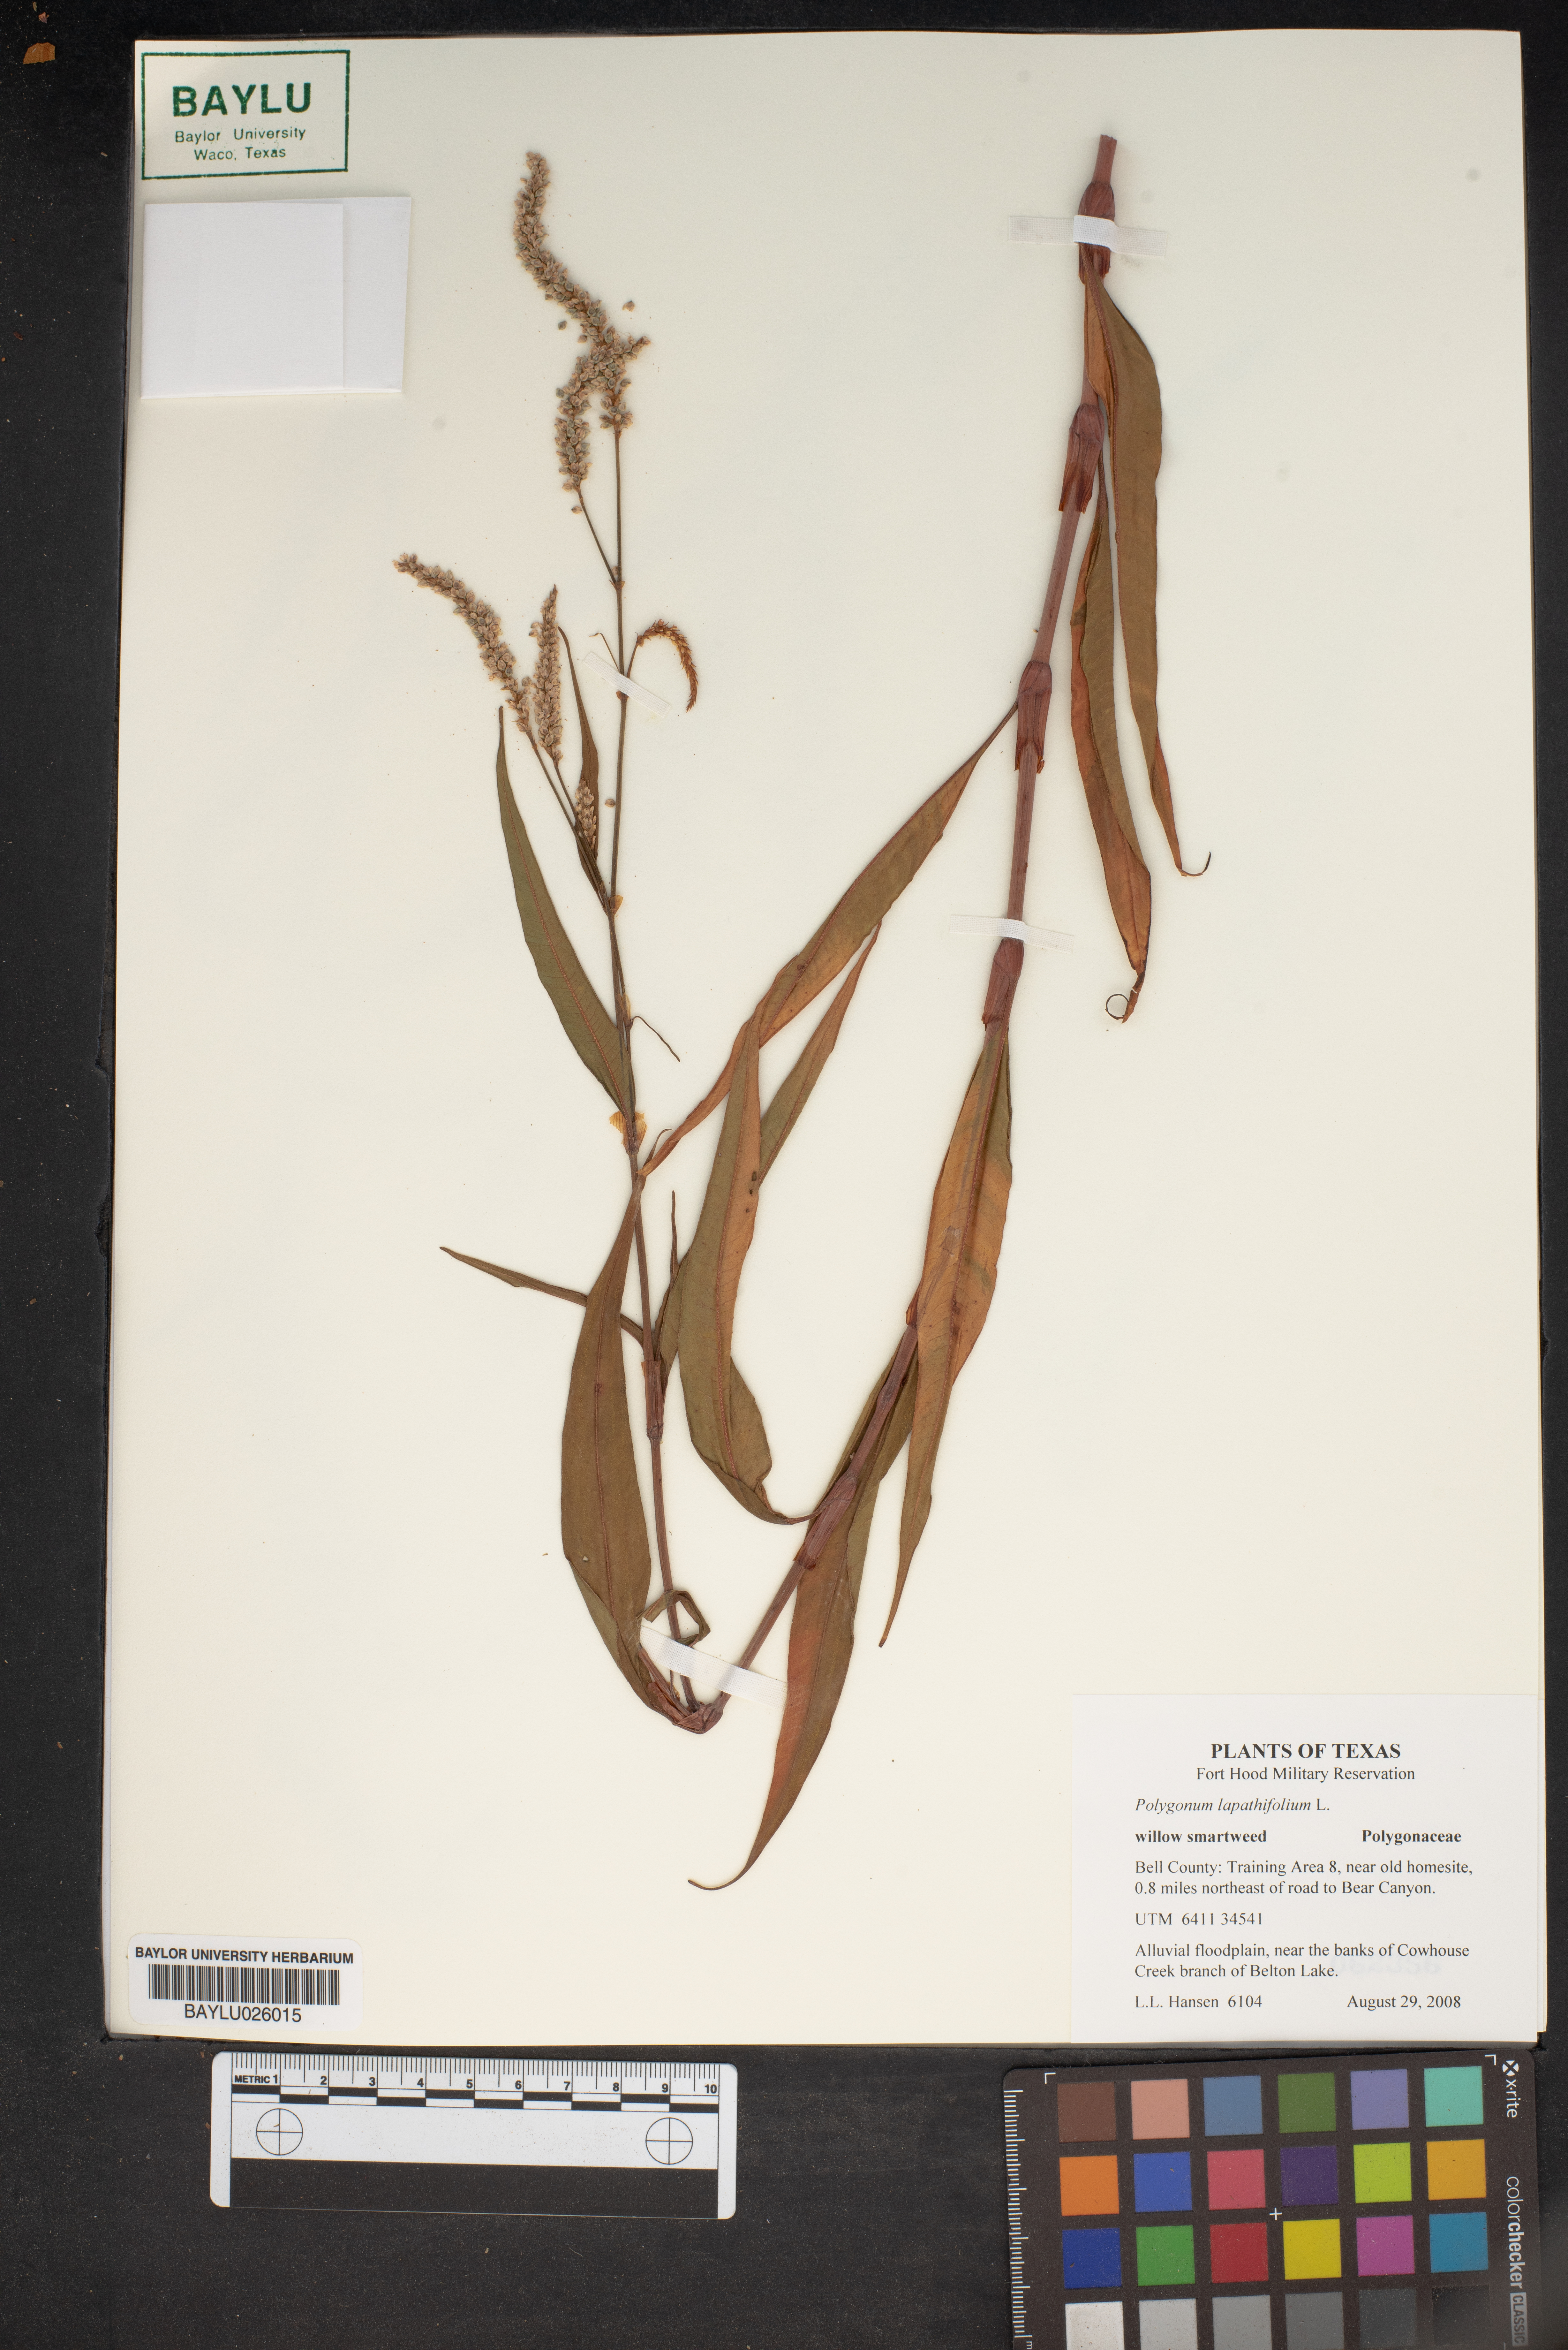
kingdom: Plantae
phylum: Tracheophyta
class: Magnoliopsida
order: Caryophyllales
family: Polygonaceae
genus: Persicaria
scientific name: Persicaria lapathifolia
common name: Curlytop knotweed
